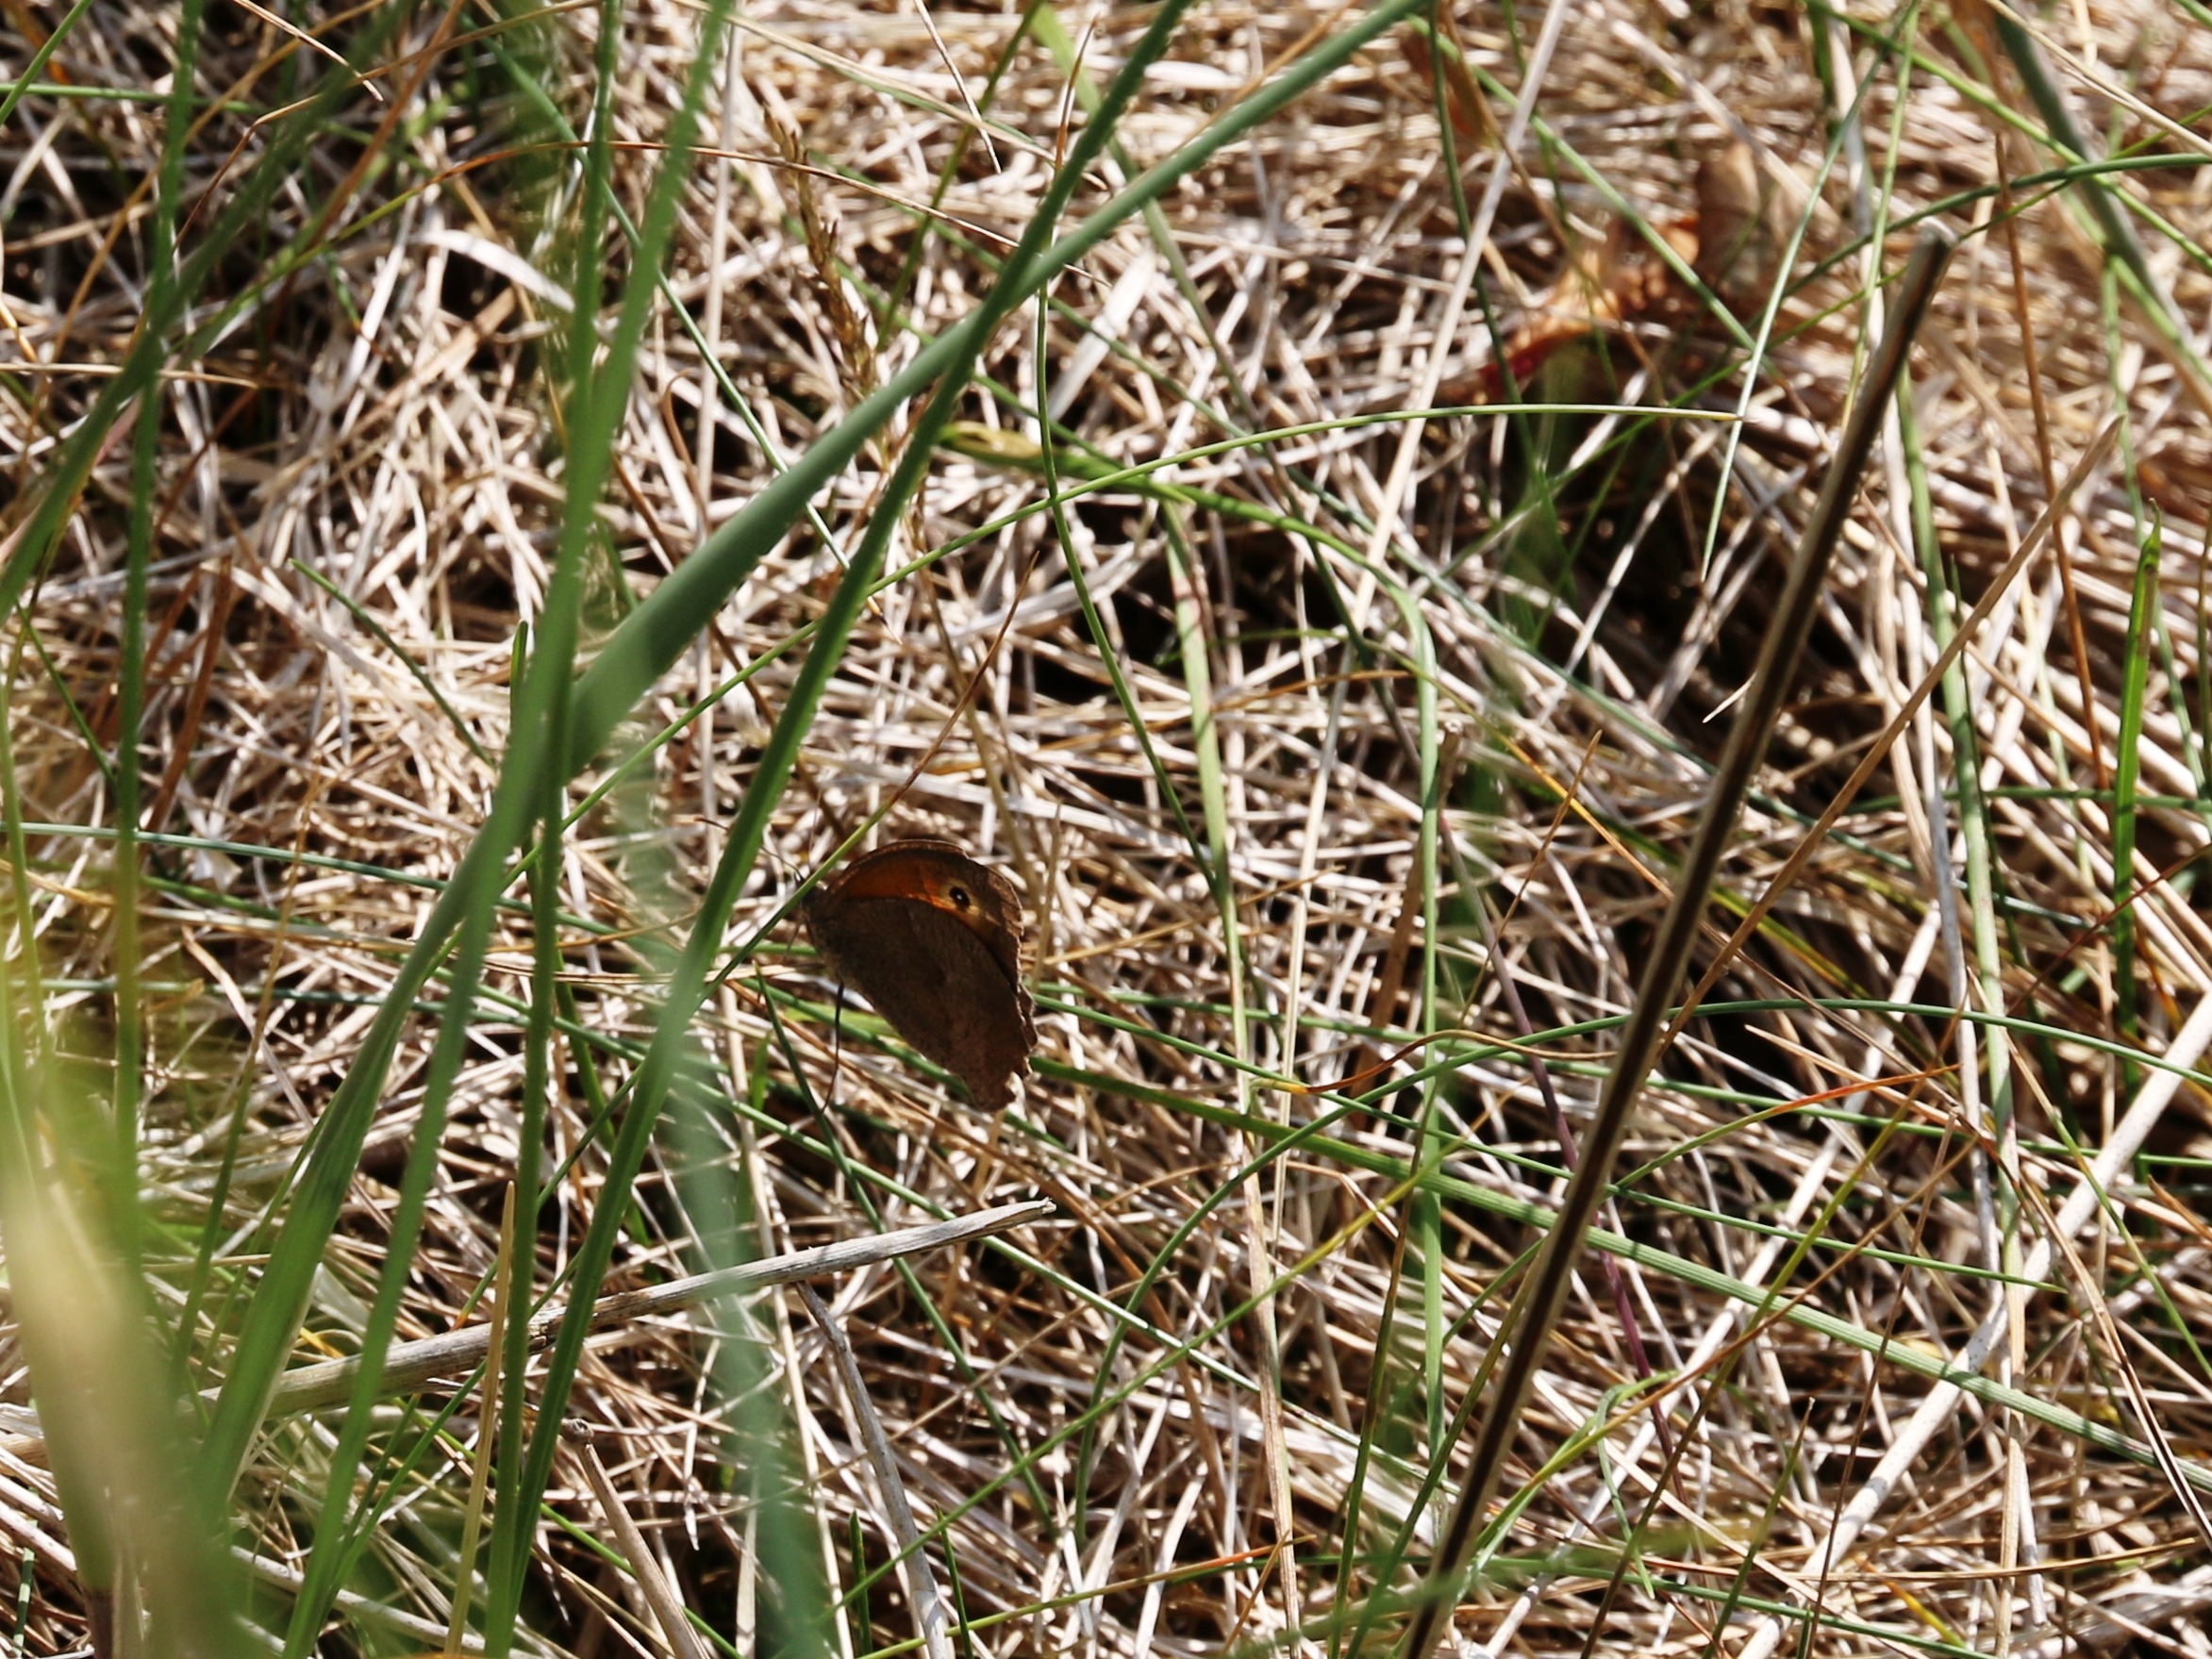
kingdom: Animalia
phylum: Arthropoda
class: Insecta
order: Lepidoptera
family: Nymphalidae
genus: Maniola
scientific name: Maniola jurtina
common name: Græsrandøje
